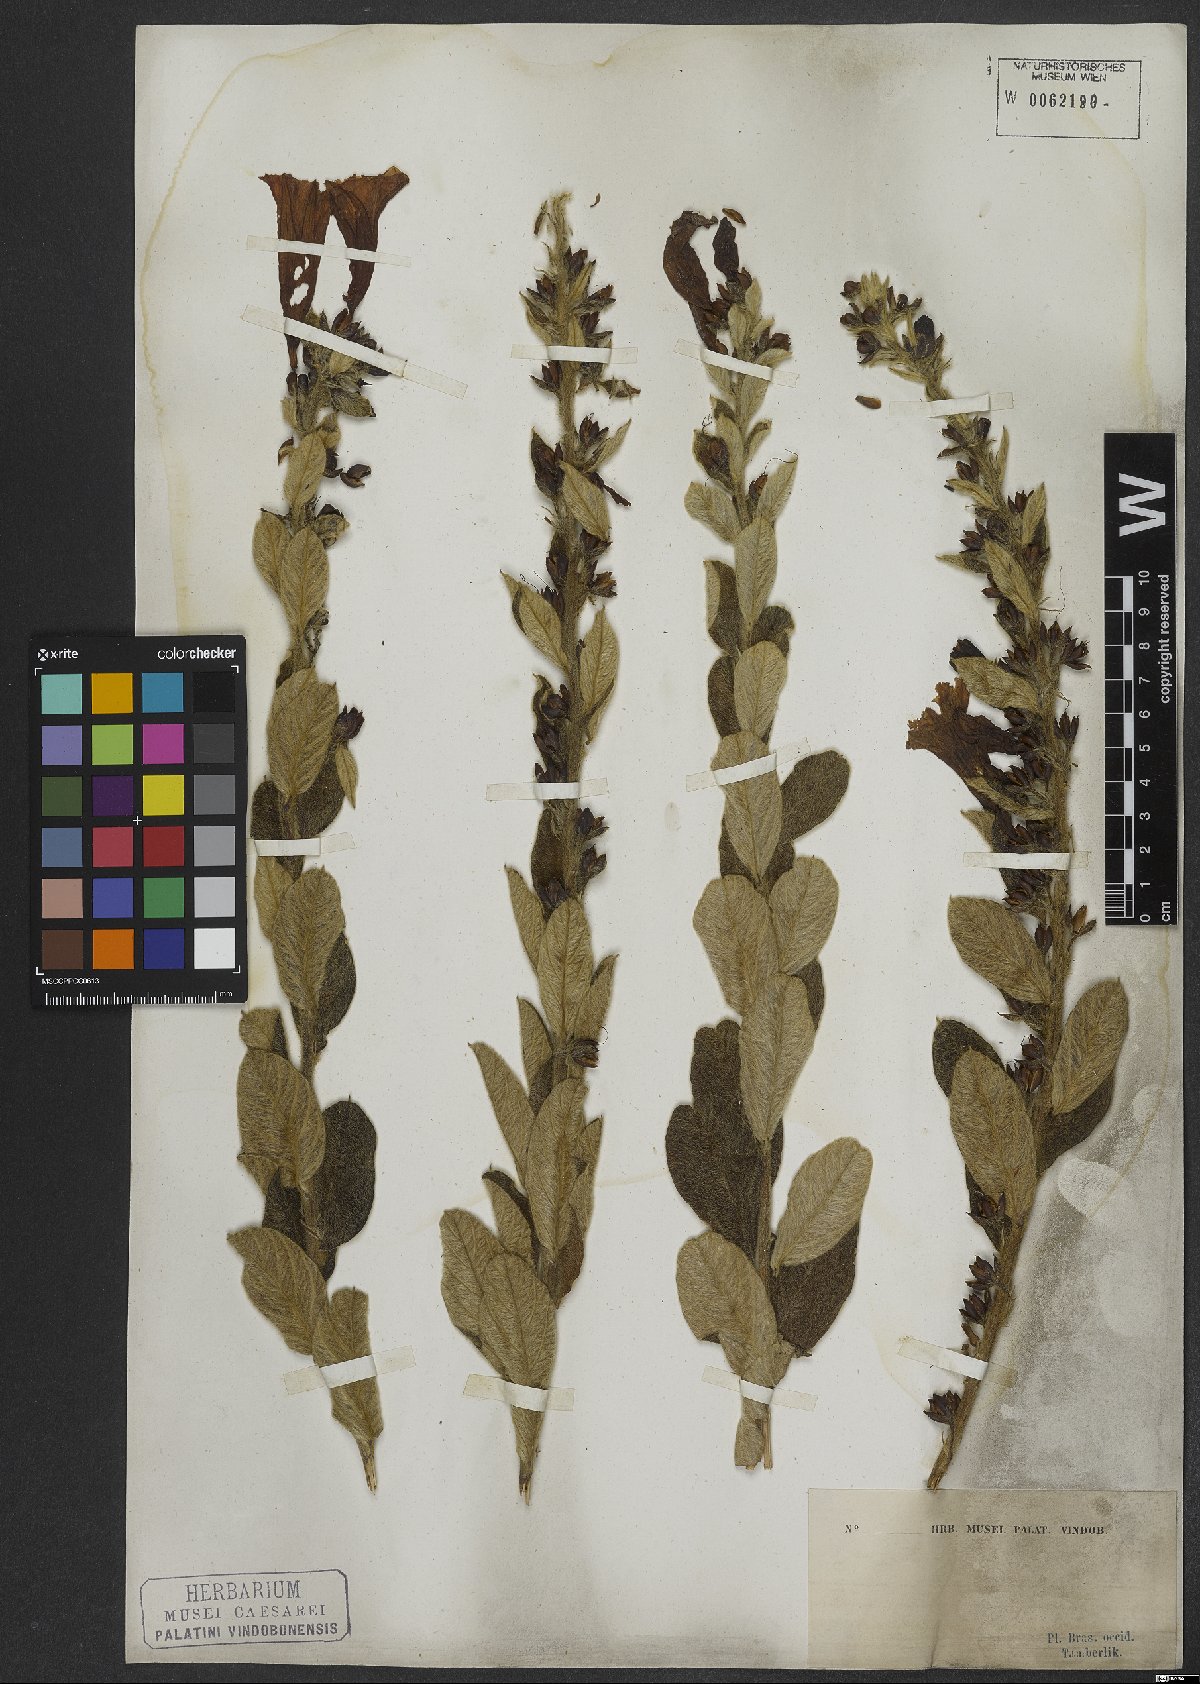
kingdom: Plantae
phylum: Tracheophyta
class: Magnoliopsida
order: Solanales
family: Convolvulaceae
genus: Ipomoea
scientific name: Ipomoea argentea
